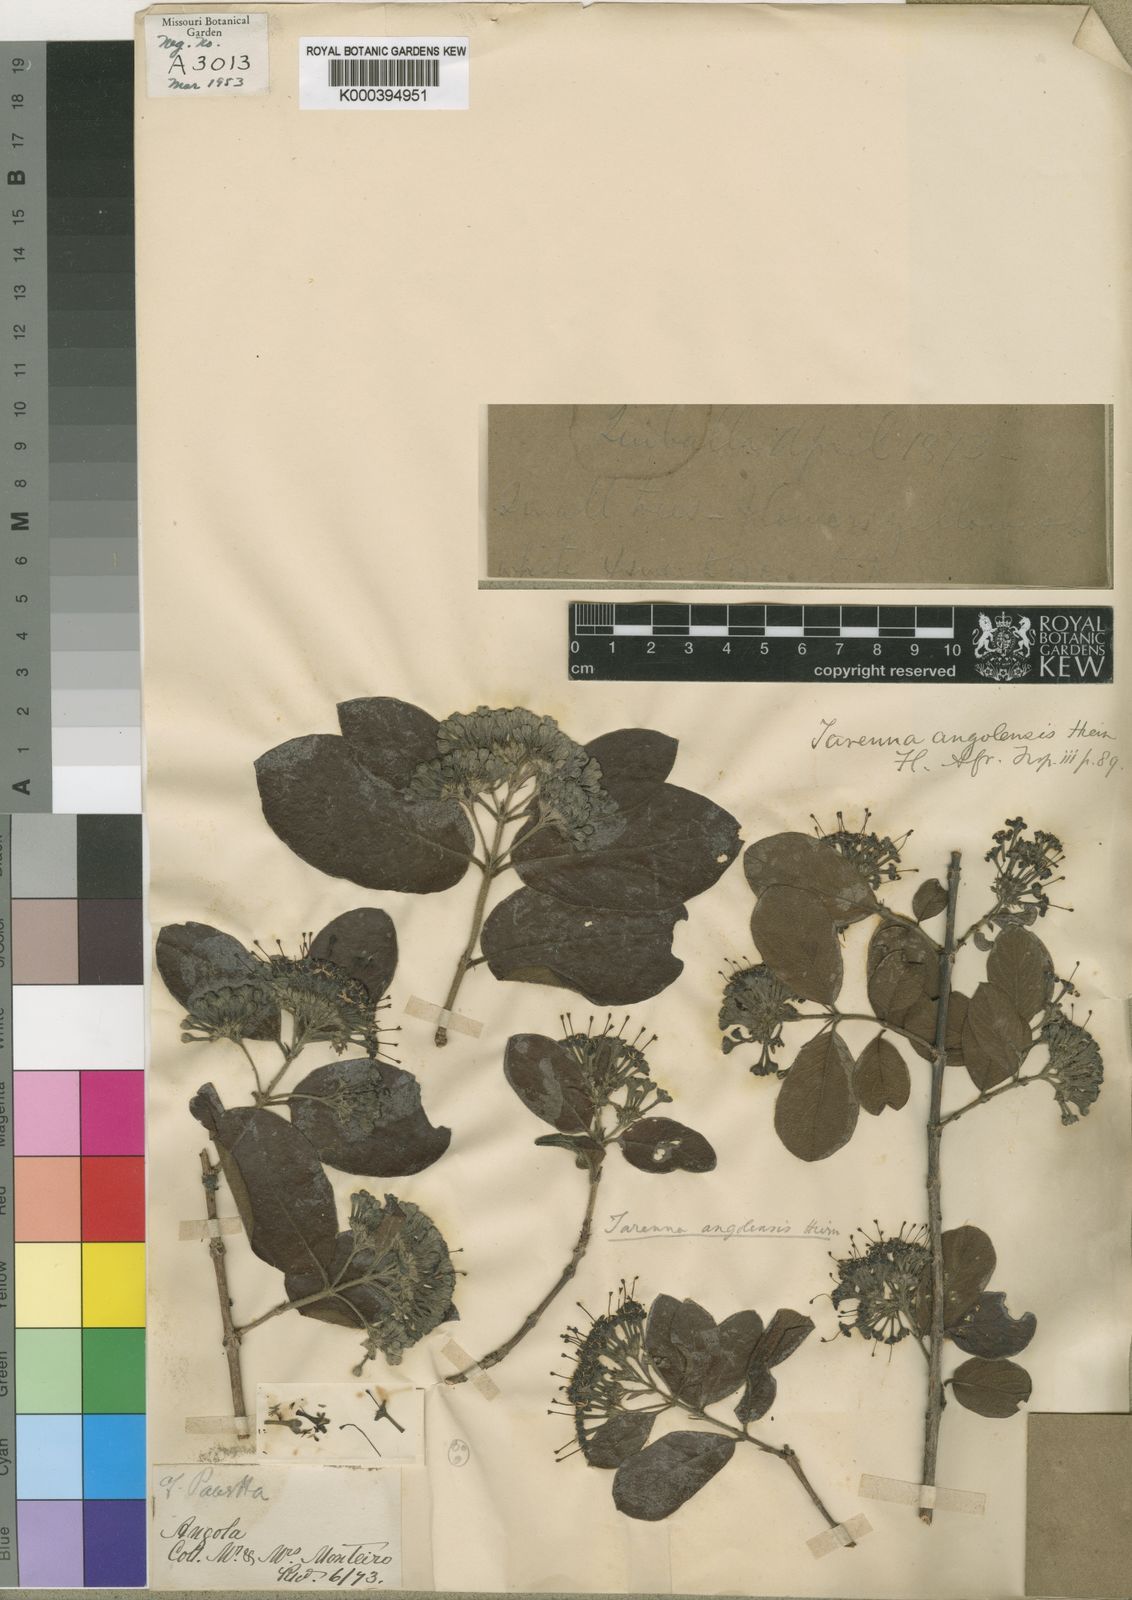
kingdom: Plantae
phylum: Tracheophyta
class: Magnoliopsida
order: Gentianales
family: Rubiaceae
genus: Crossopteryx
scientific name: Crossopteryx febrifuga
